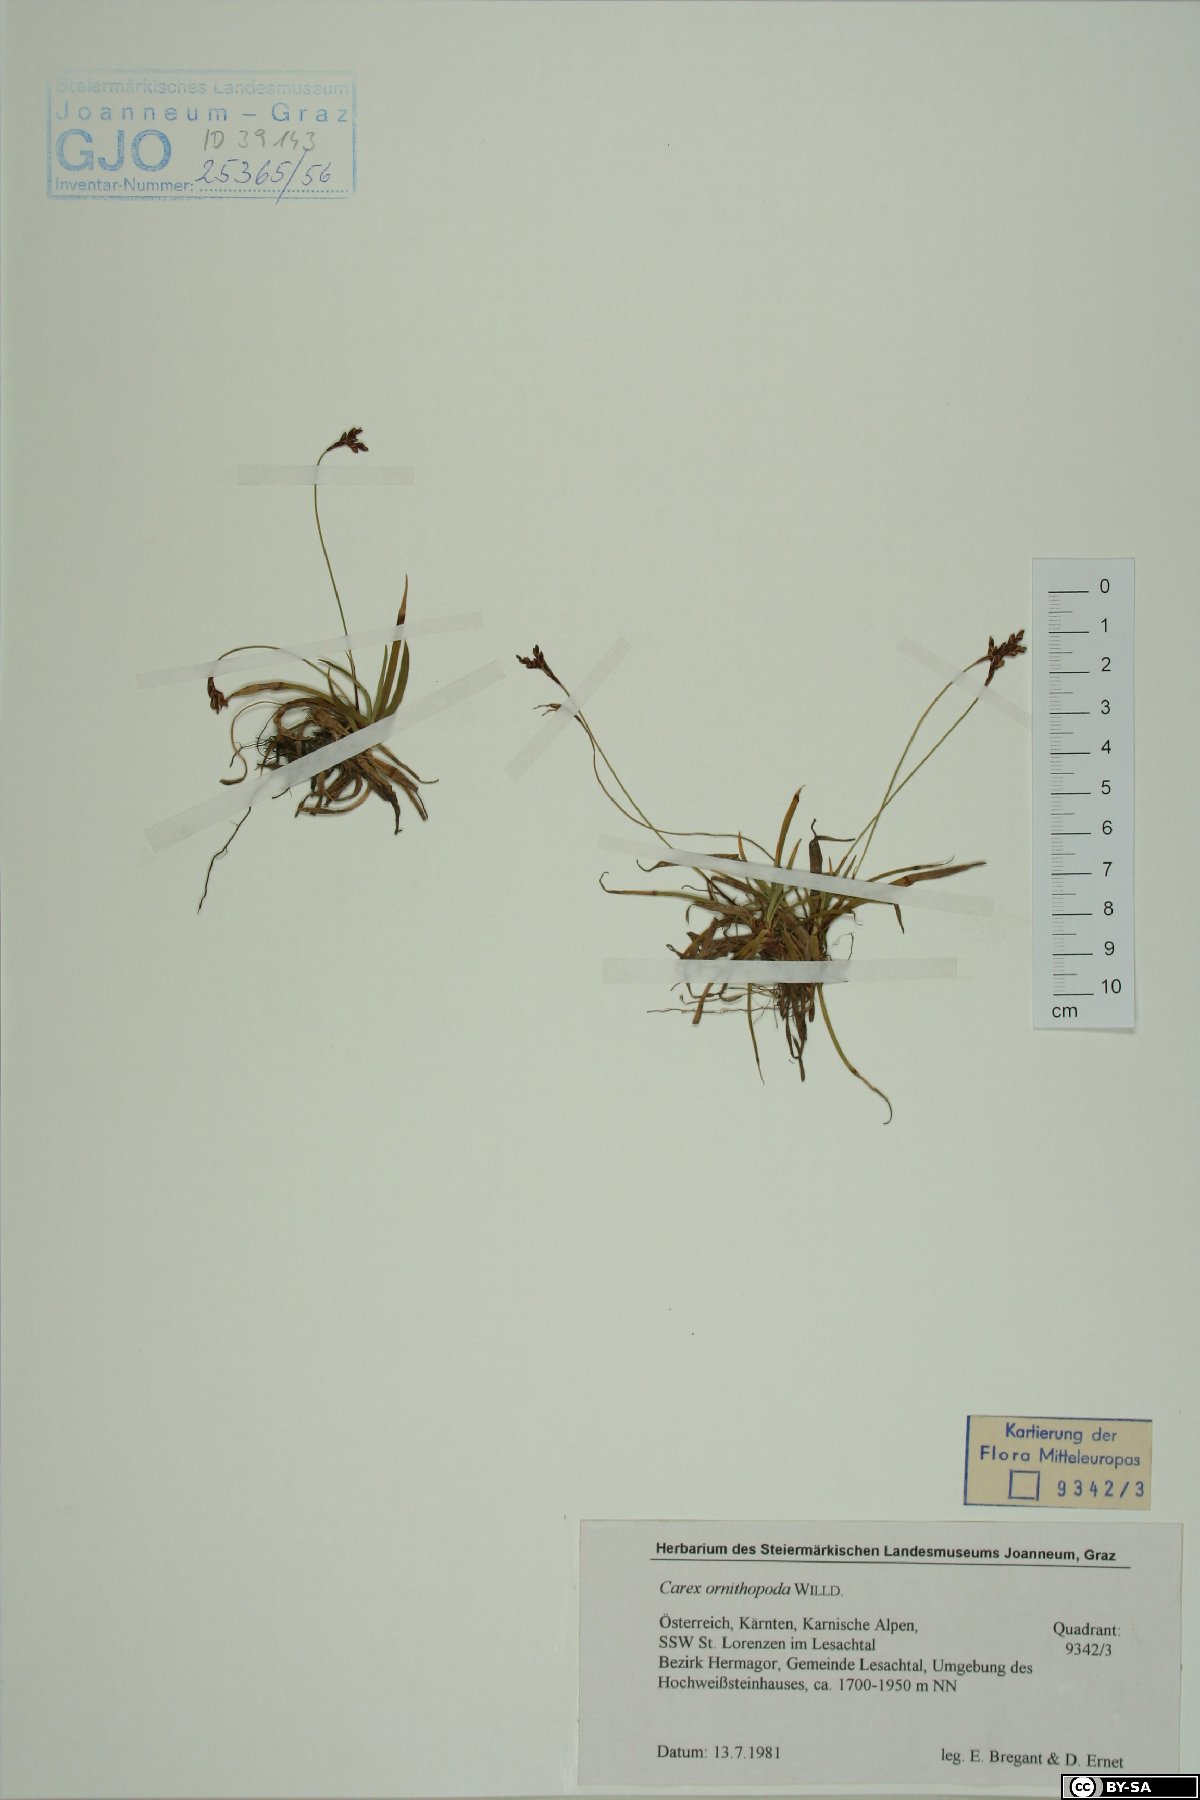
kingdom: Plantae
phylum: Tracheophyta
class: Liliopsida
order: Poales
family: Cyperaceae
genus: Carex
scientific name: Carex ornithopoda
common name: Bird's-foot sedge
